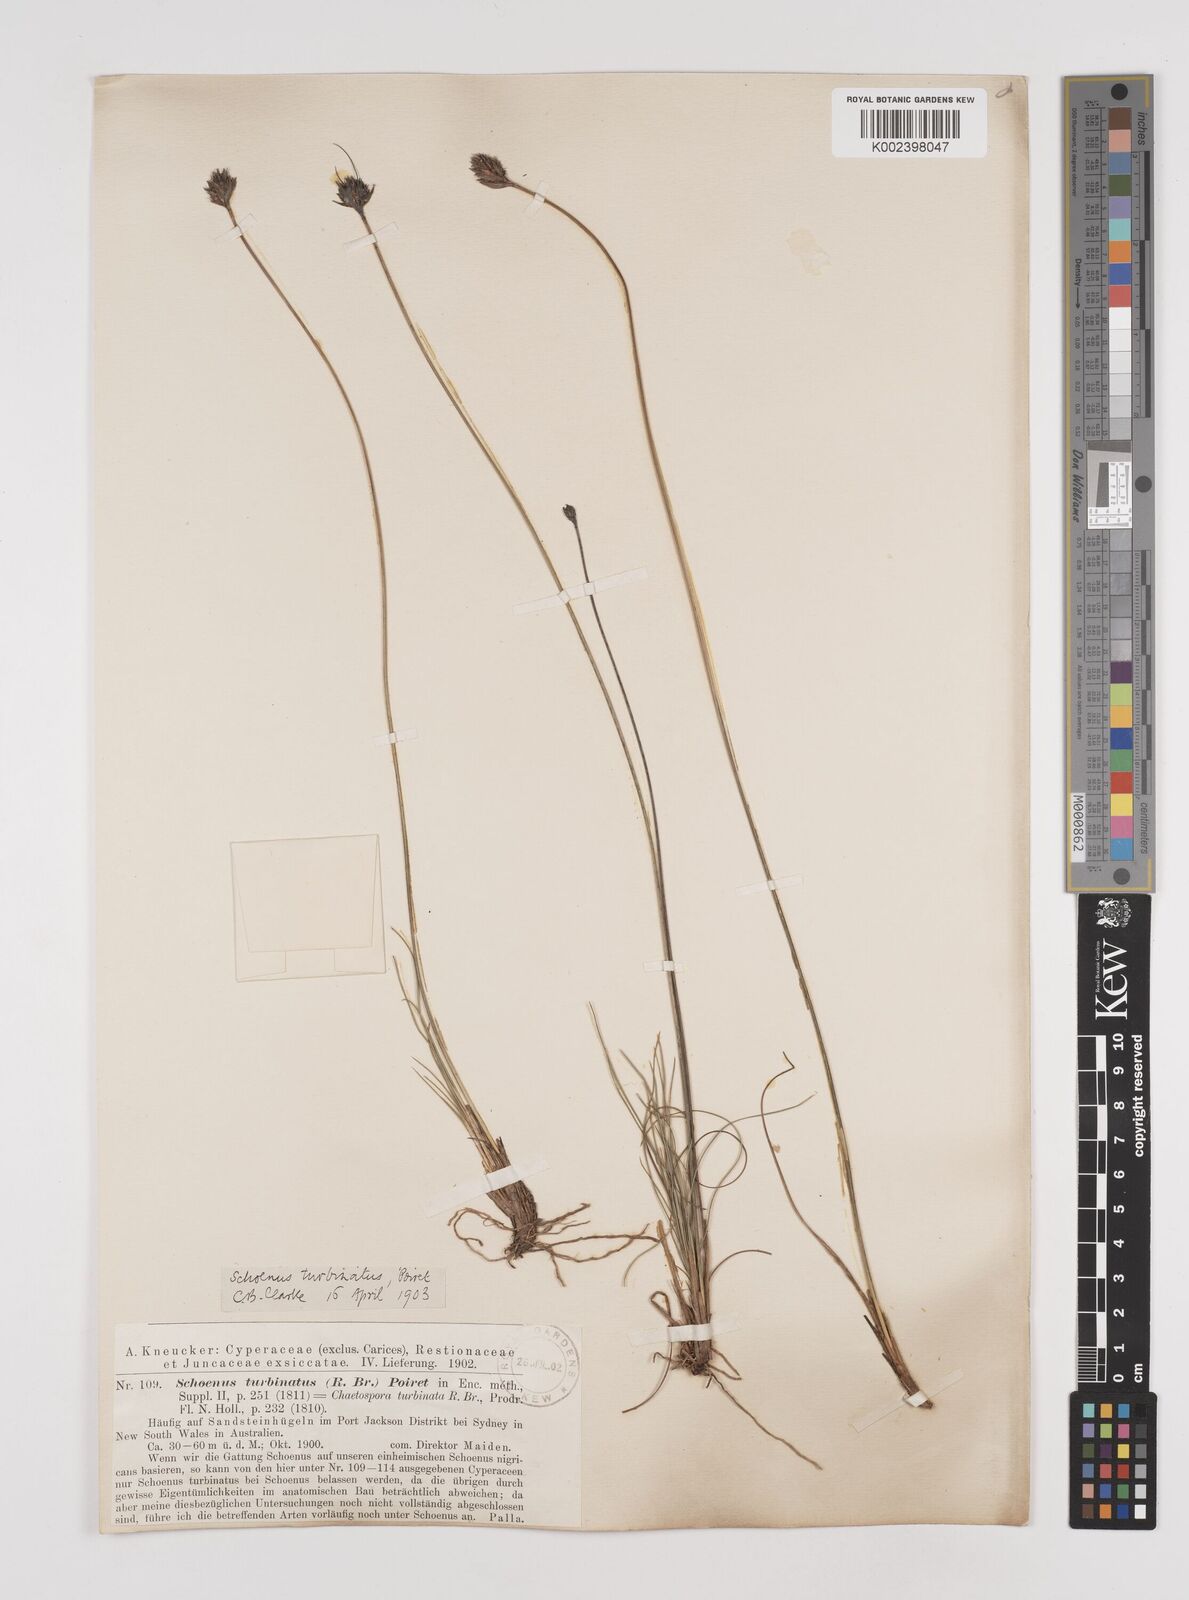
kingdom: Plantae
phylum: Tracheophyta
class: Liliopsida
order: Poales
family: Cyperaceae
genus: Schoenus
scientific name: Schoenus turbinatus
